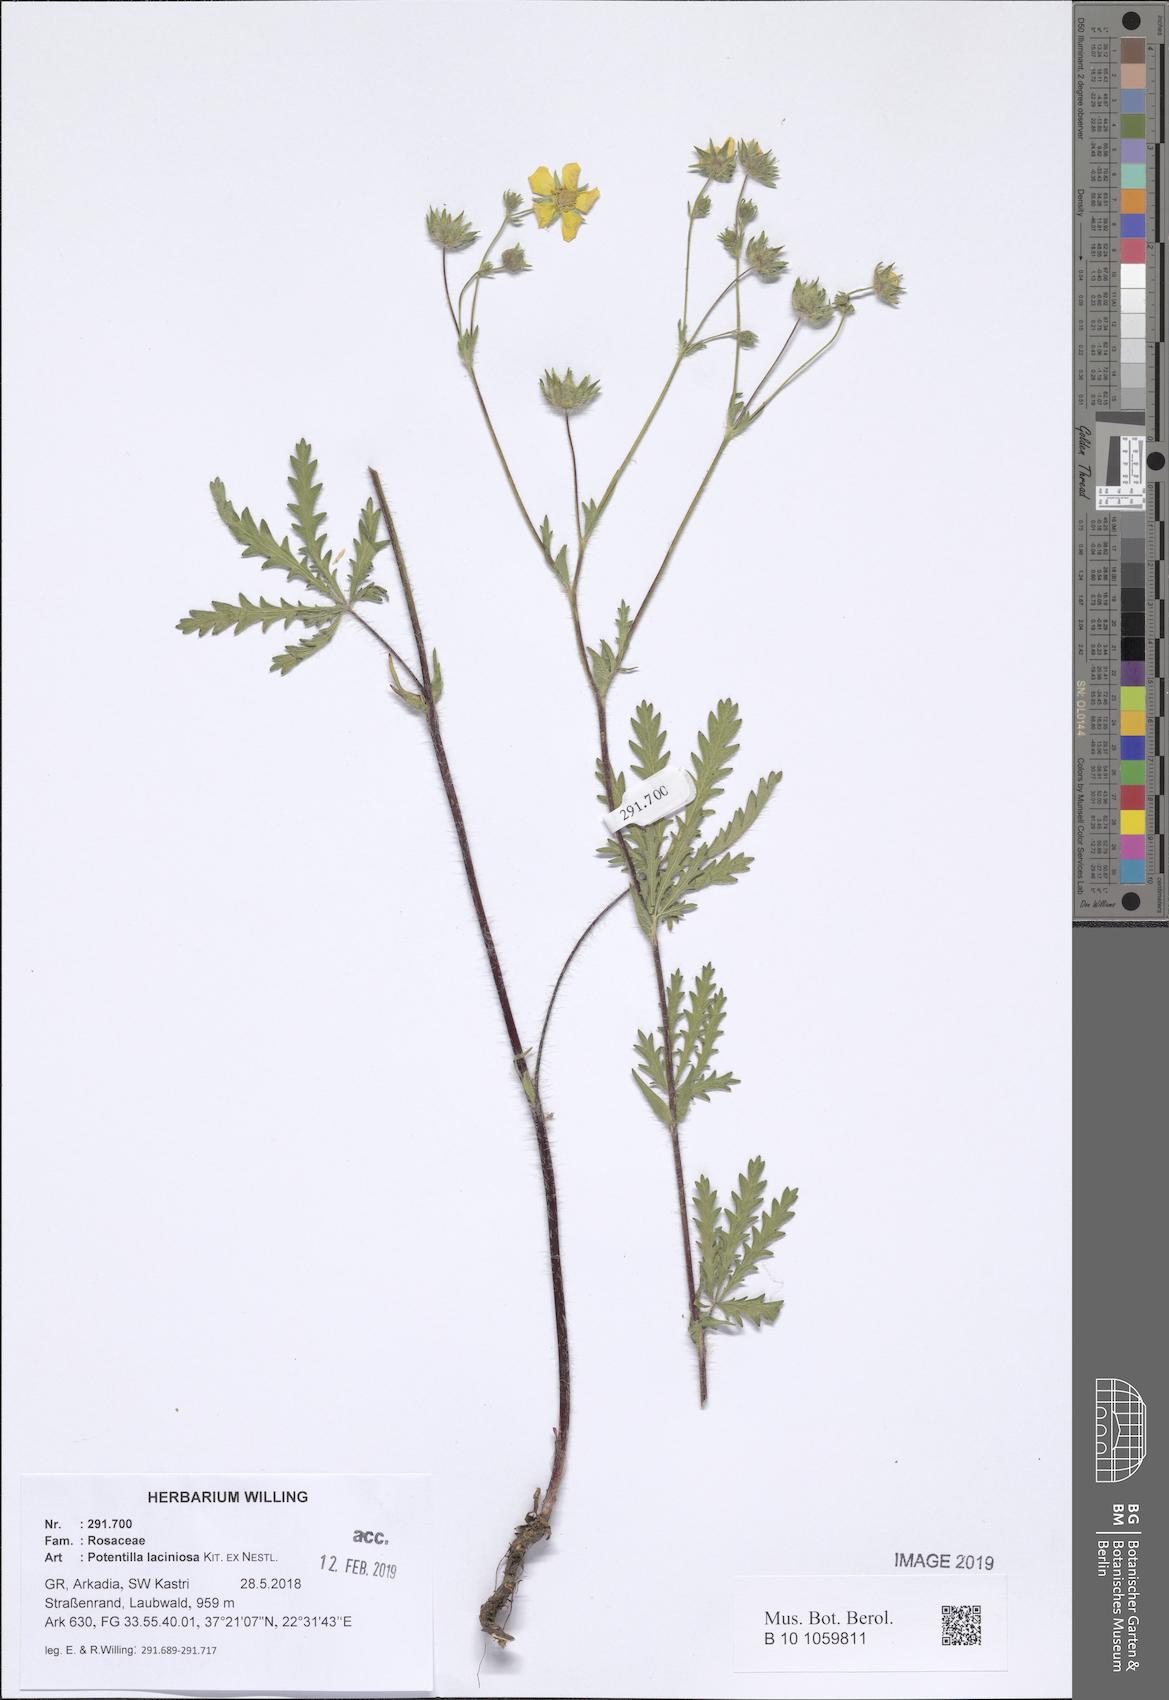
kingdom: Plantae
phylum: Tracheophyta
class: Magnoliopsida
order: Rosales
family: Rosaceae
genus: Potentilla
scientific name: Potentilla recta
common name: Sulphur cinquefoil
